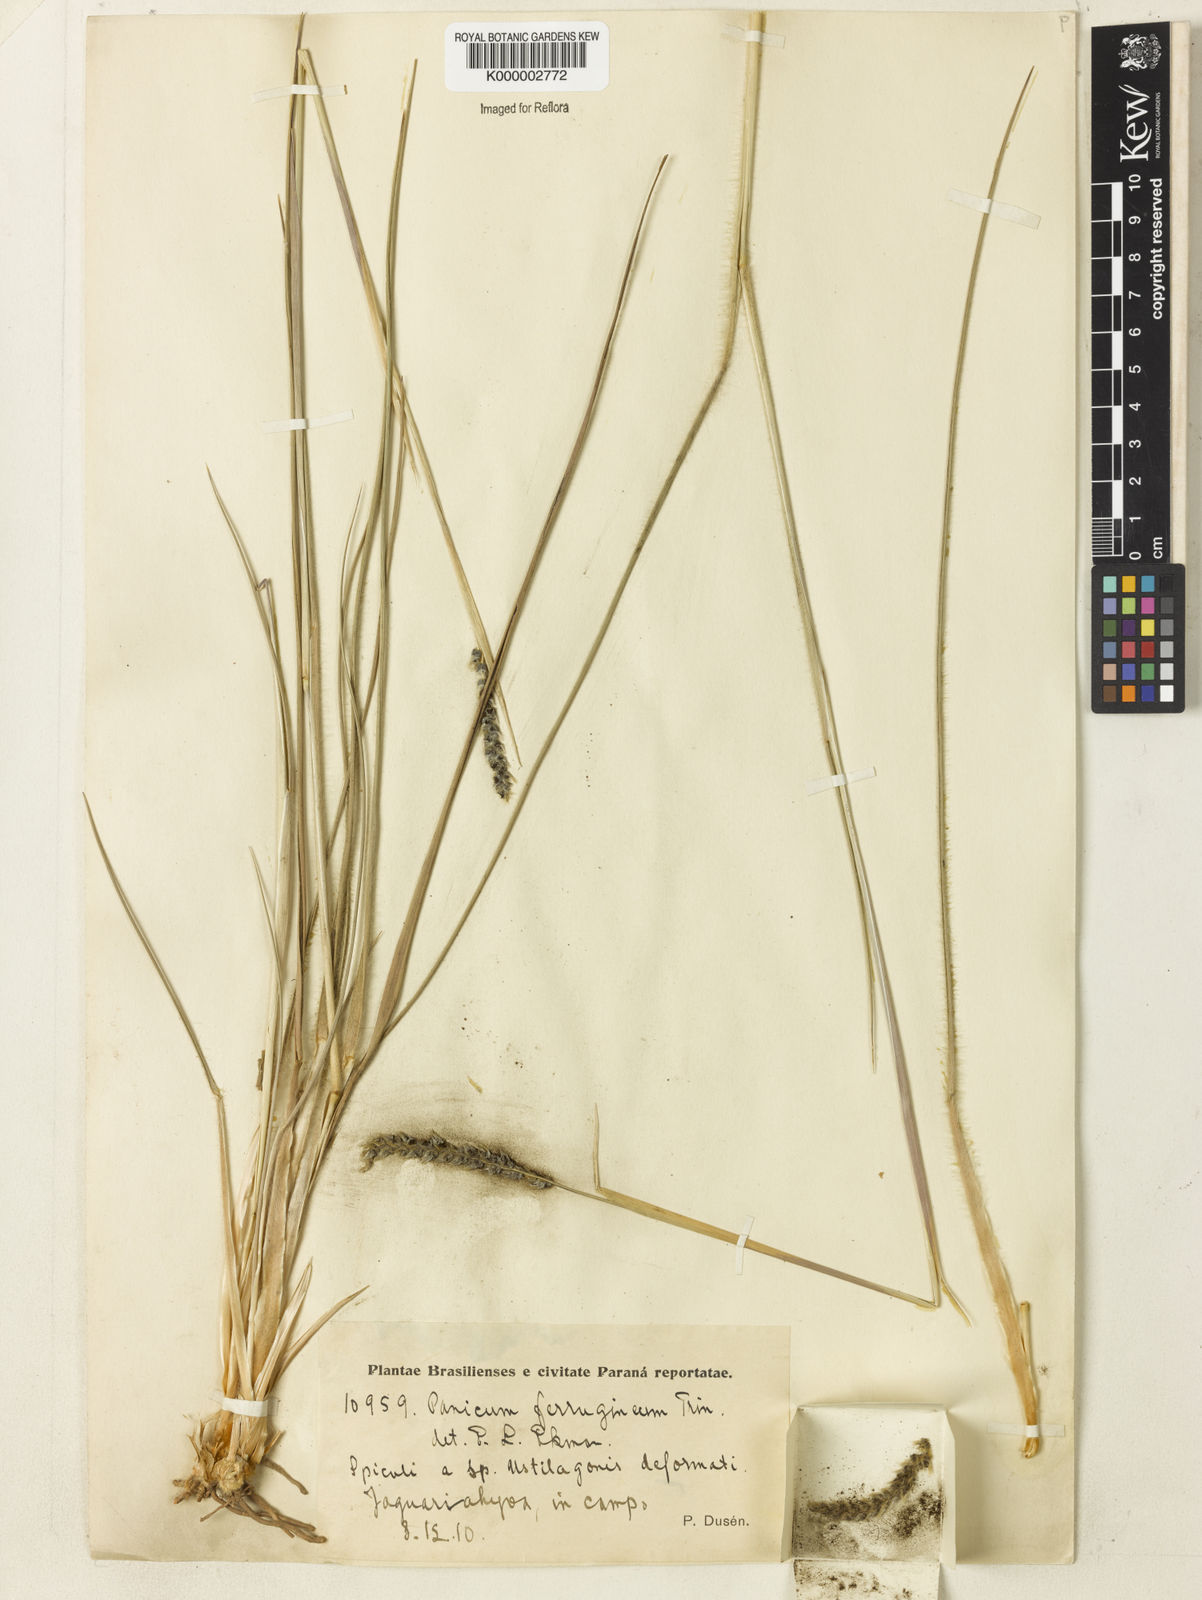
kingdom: Plantae
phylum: Tracheophyta
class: Liliopsida
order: Poales
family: Poaceae
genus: Mesosetum
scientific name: Mesosetum ferrugineum
